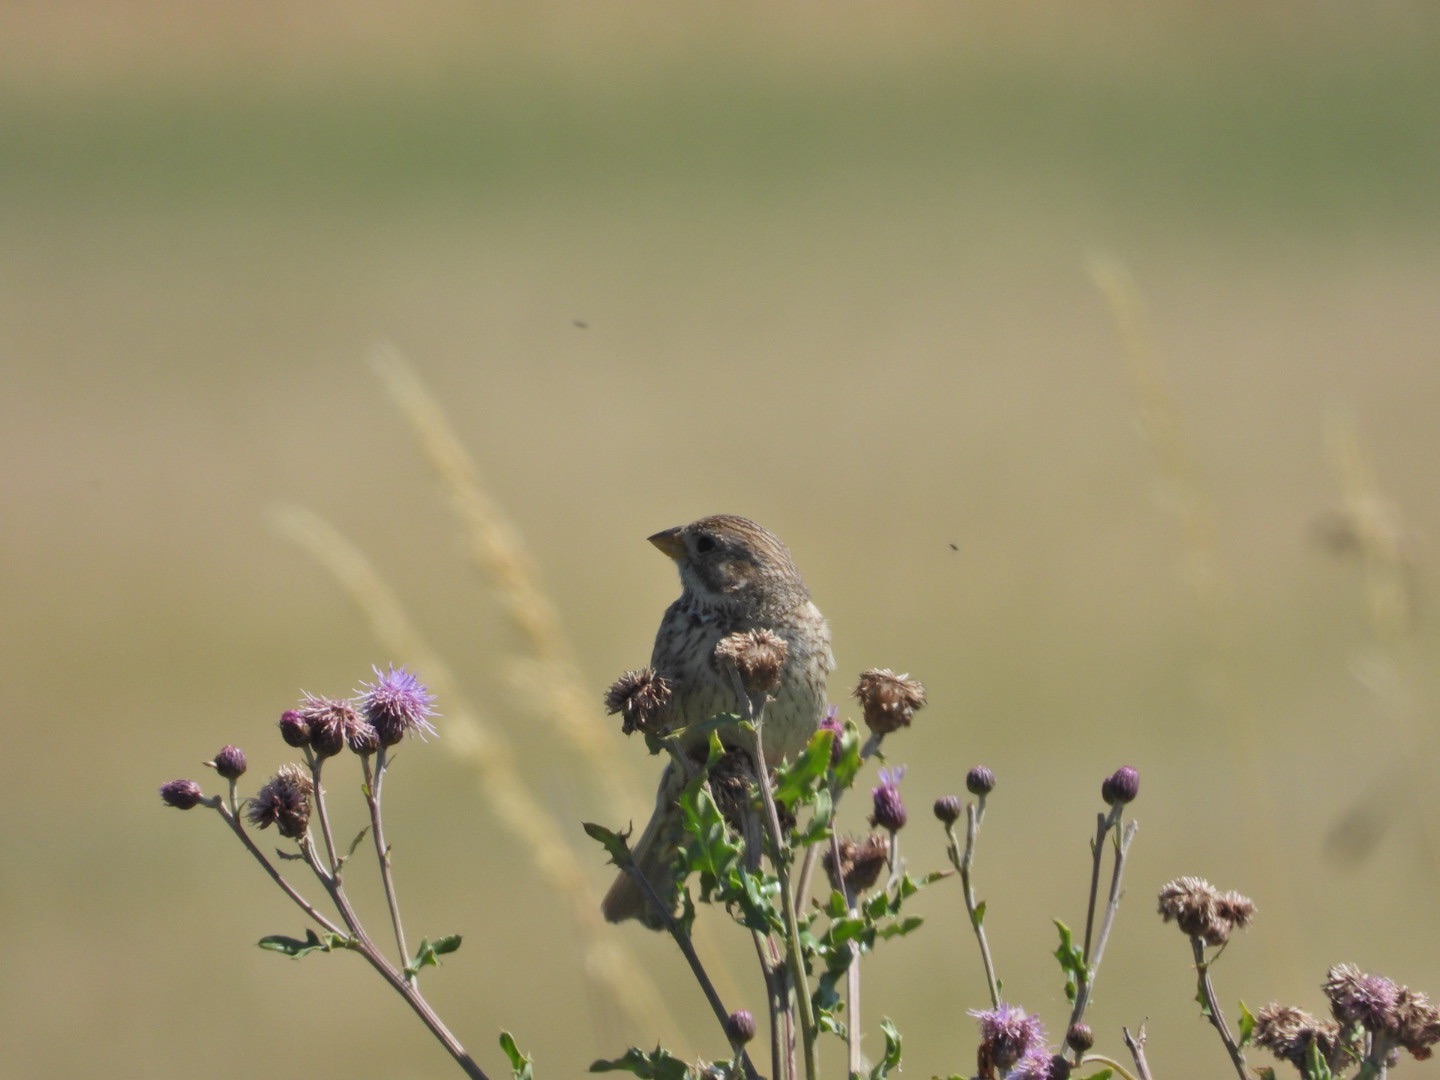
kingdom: Animalia
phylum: Chordata
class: Aves
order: Passeriformes
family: Emberizidae
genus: Emberiza
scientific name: Emberiza calandra
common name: Bomlærke
